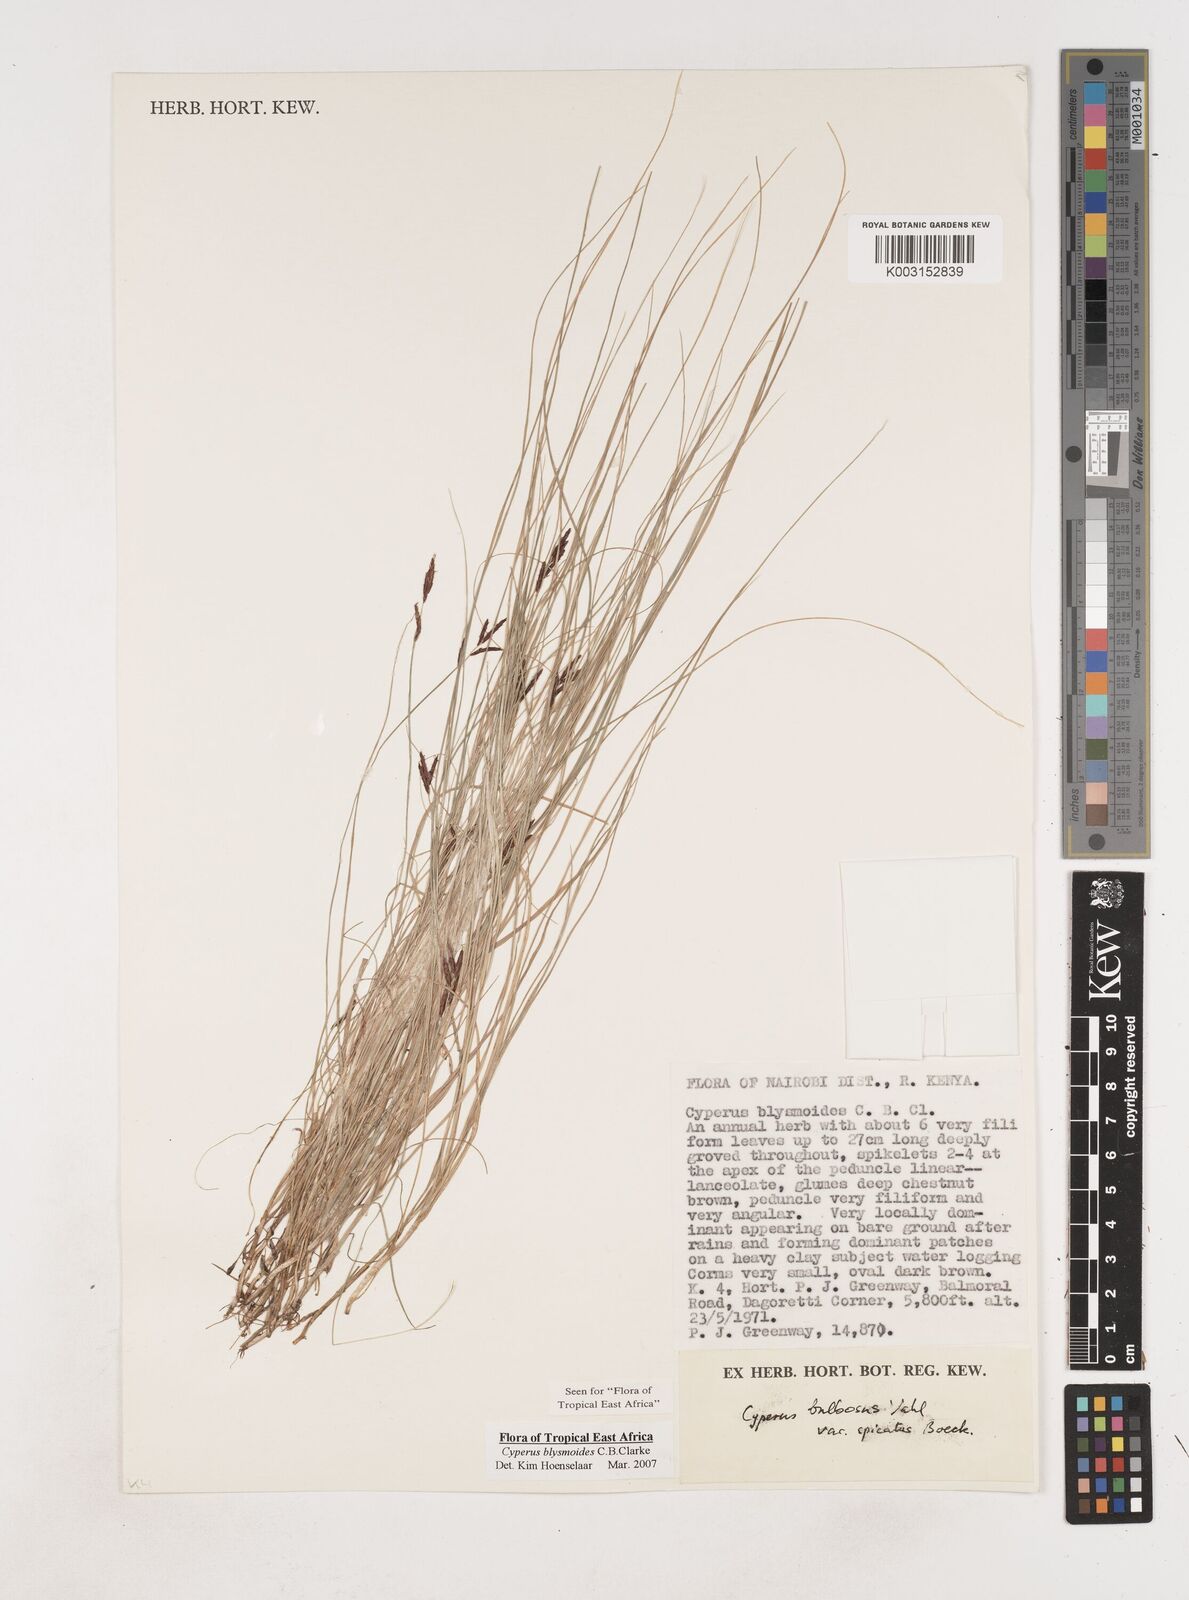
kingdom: Plantae
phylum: Tracheophyta
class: Liliopsida
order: Poales
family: Cyperaceae
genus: Cyperus
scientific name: Cyperus blysmoides
